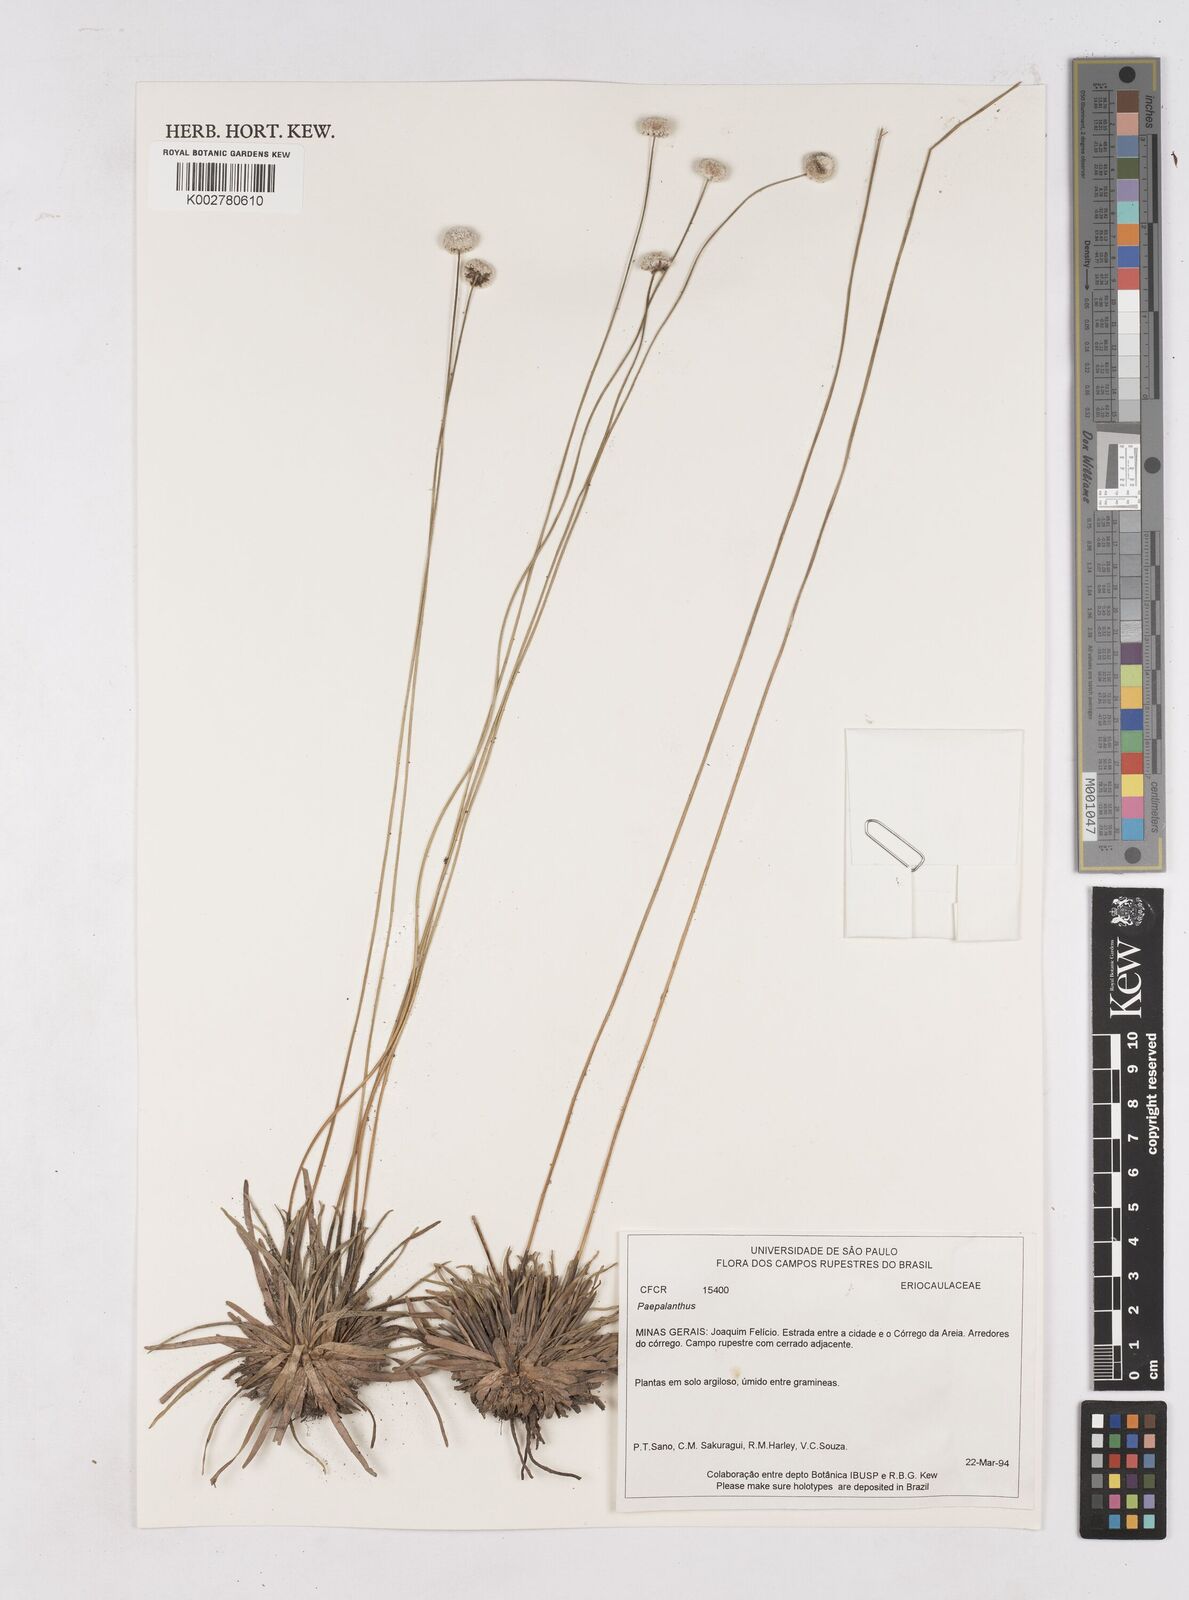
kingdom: Plantae
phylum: Tracheophyta
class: Liliopsida
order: Poales
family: Eriocaulaceae
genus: Paepalanthus
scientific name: Paepalanthus
